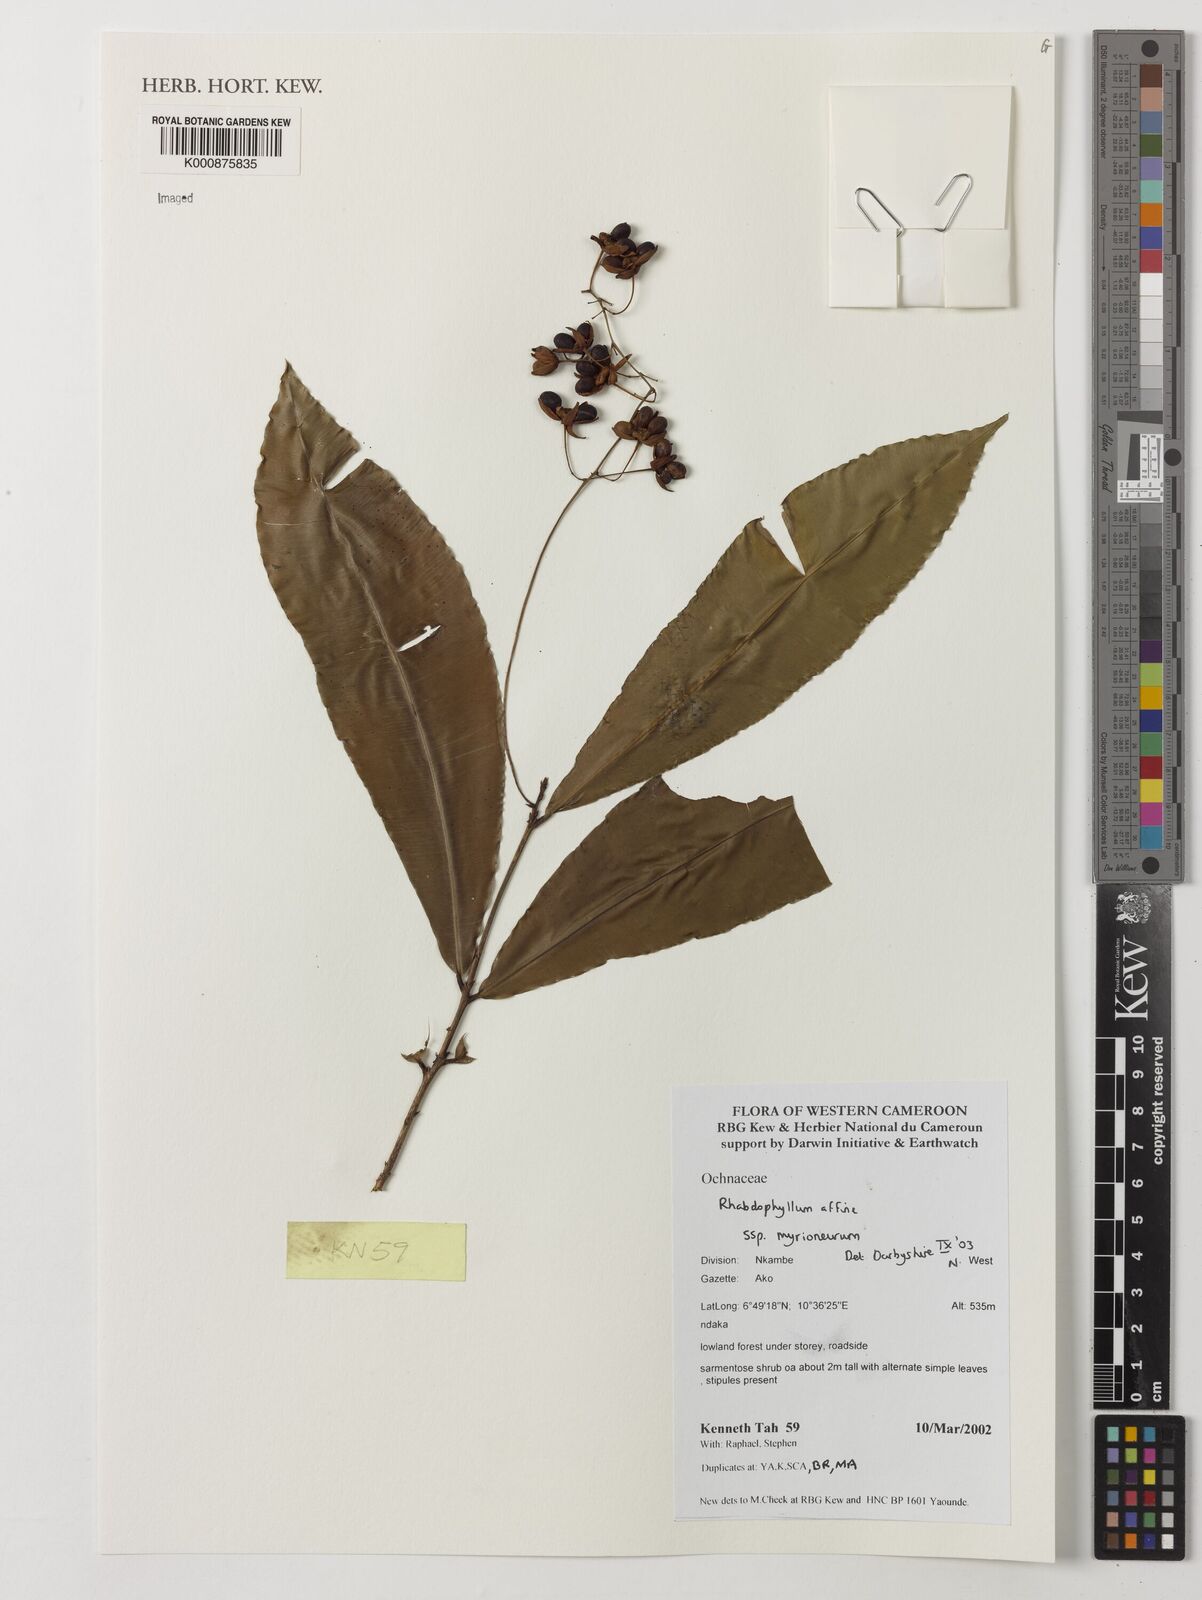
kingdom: Plantae
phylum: Tracheophyta
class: Magnoliopsida
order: Malpighiales
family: Ochnaceae
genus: Rhabdophyllum
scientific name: Rhabdophyllum affine
